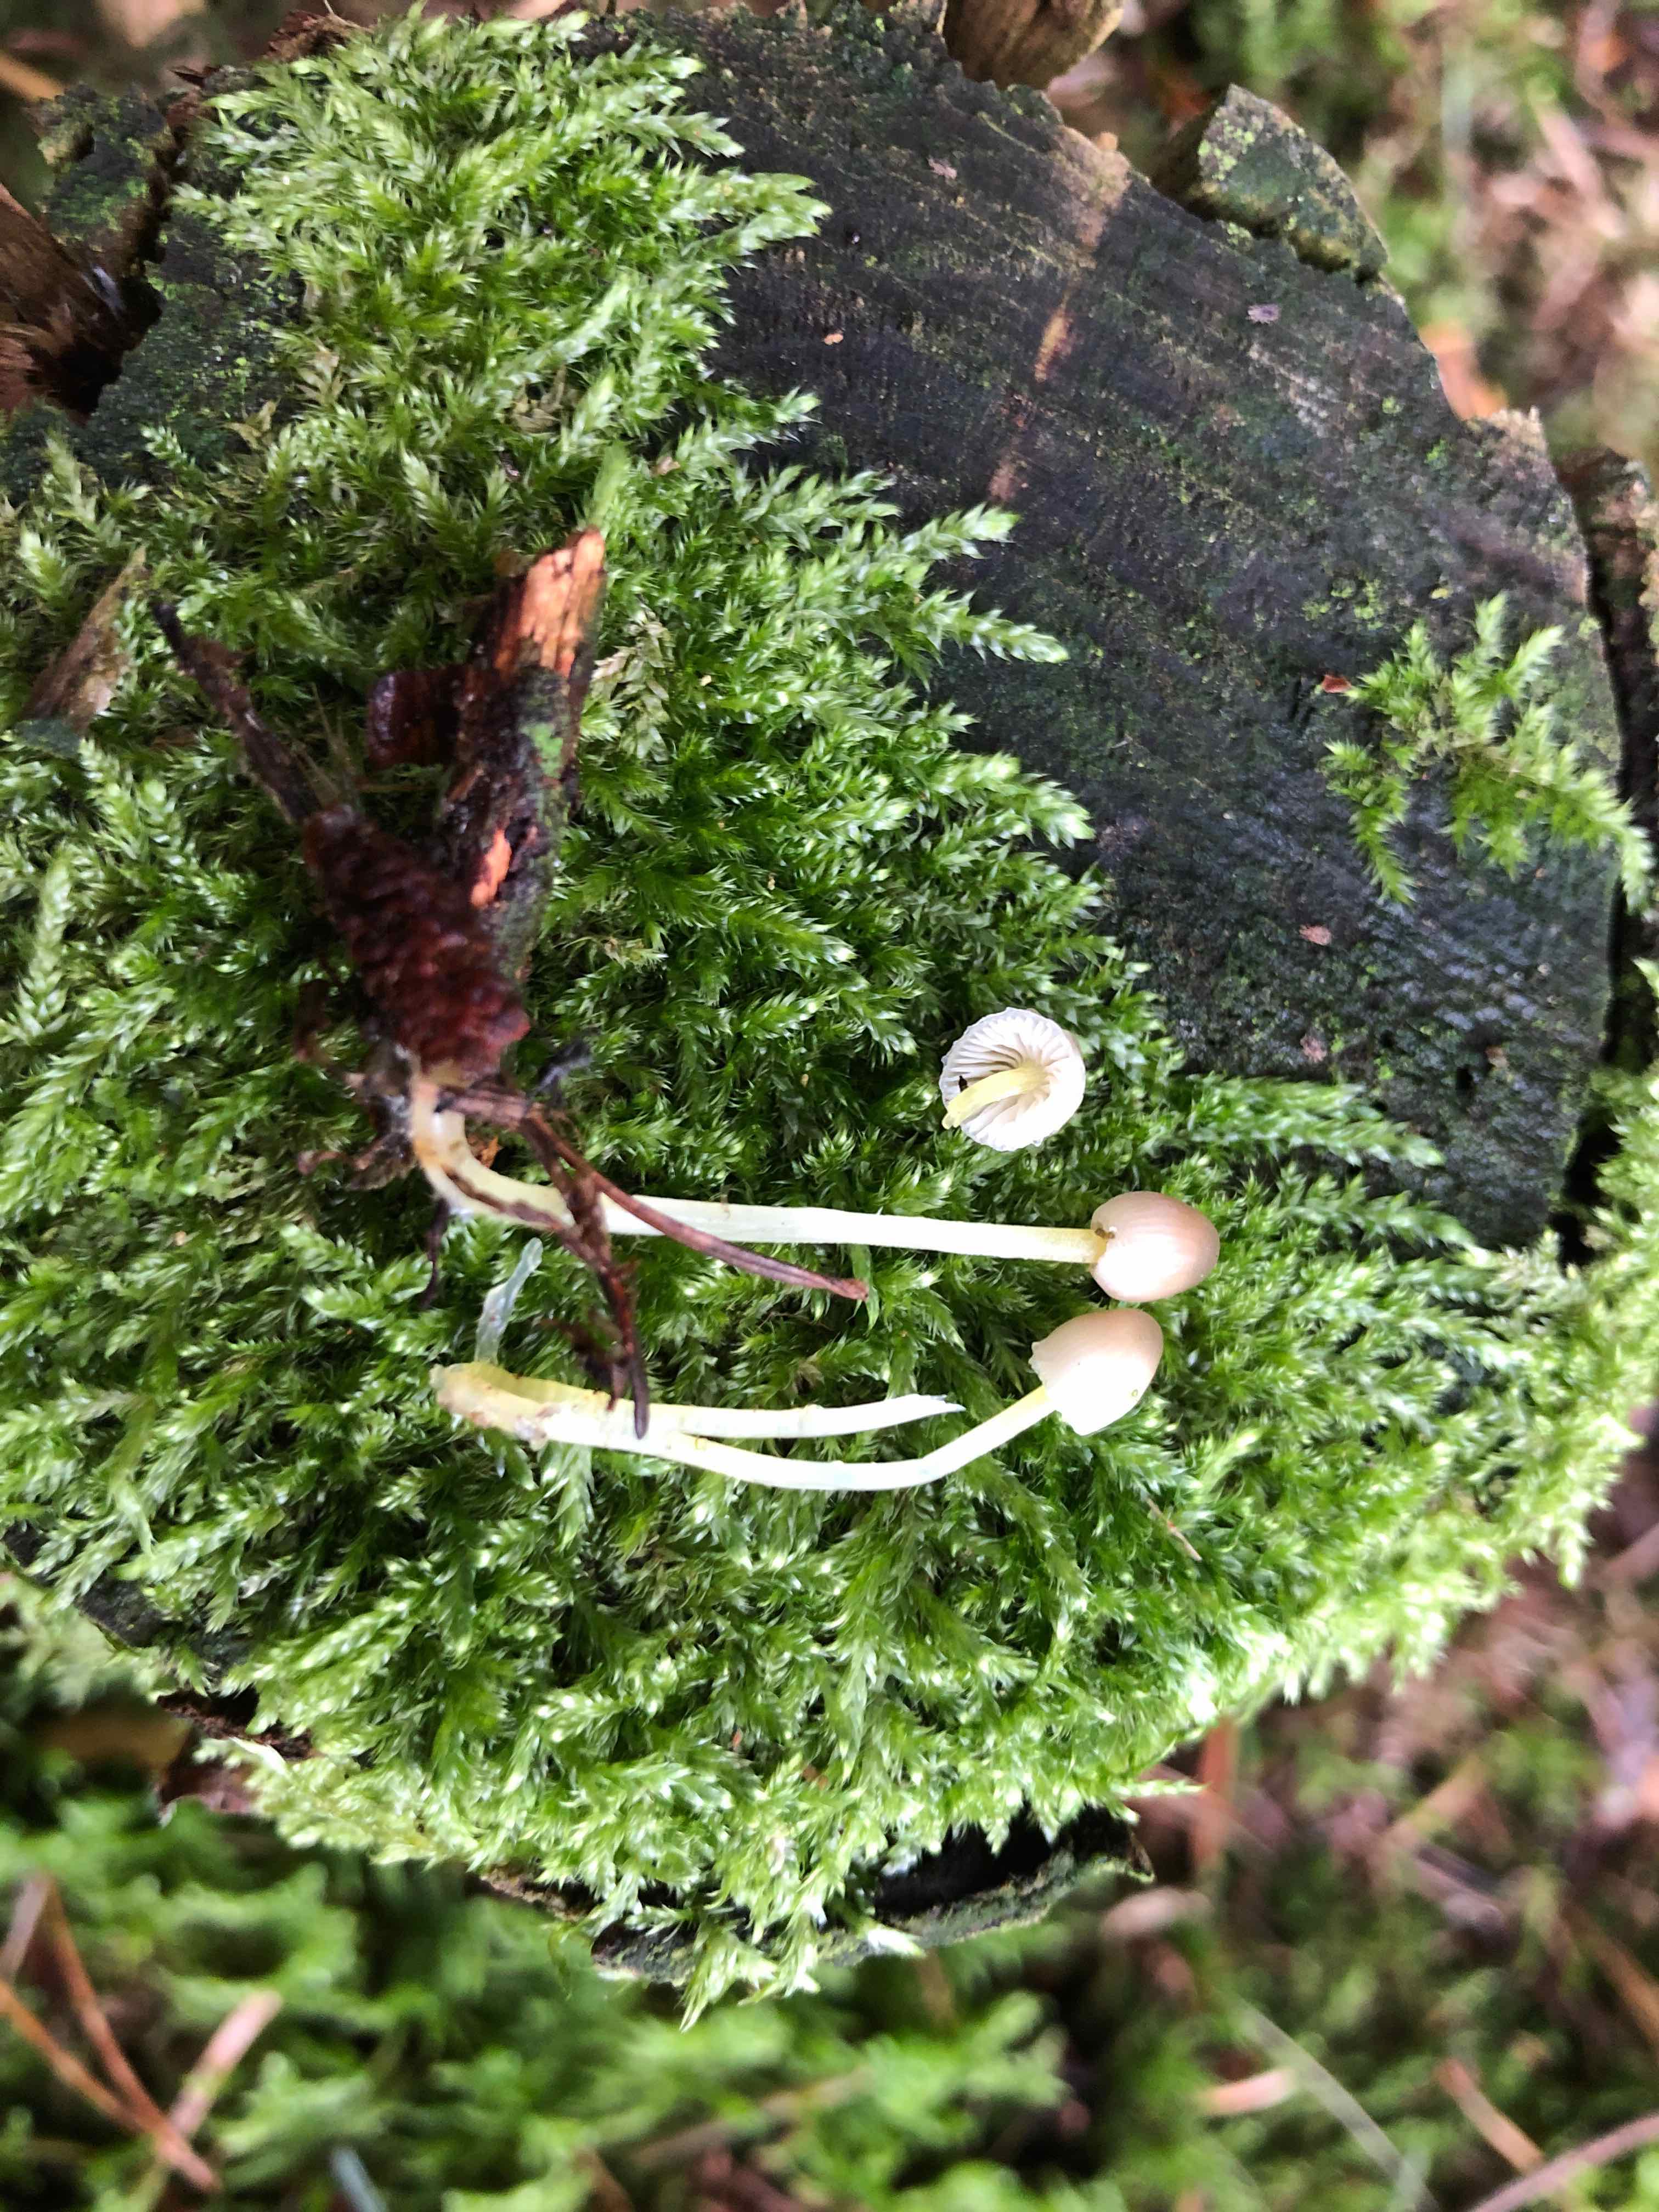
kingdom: Fungi
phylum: Basidiomycota
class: Agaricomycetes
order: Agaricales
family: Mycenaceae
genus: Mycena
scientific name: Mycena epipterygia
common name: gulstokket huesvamp
